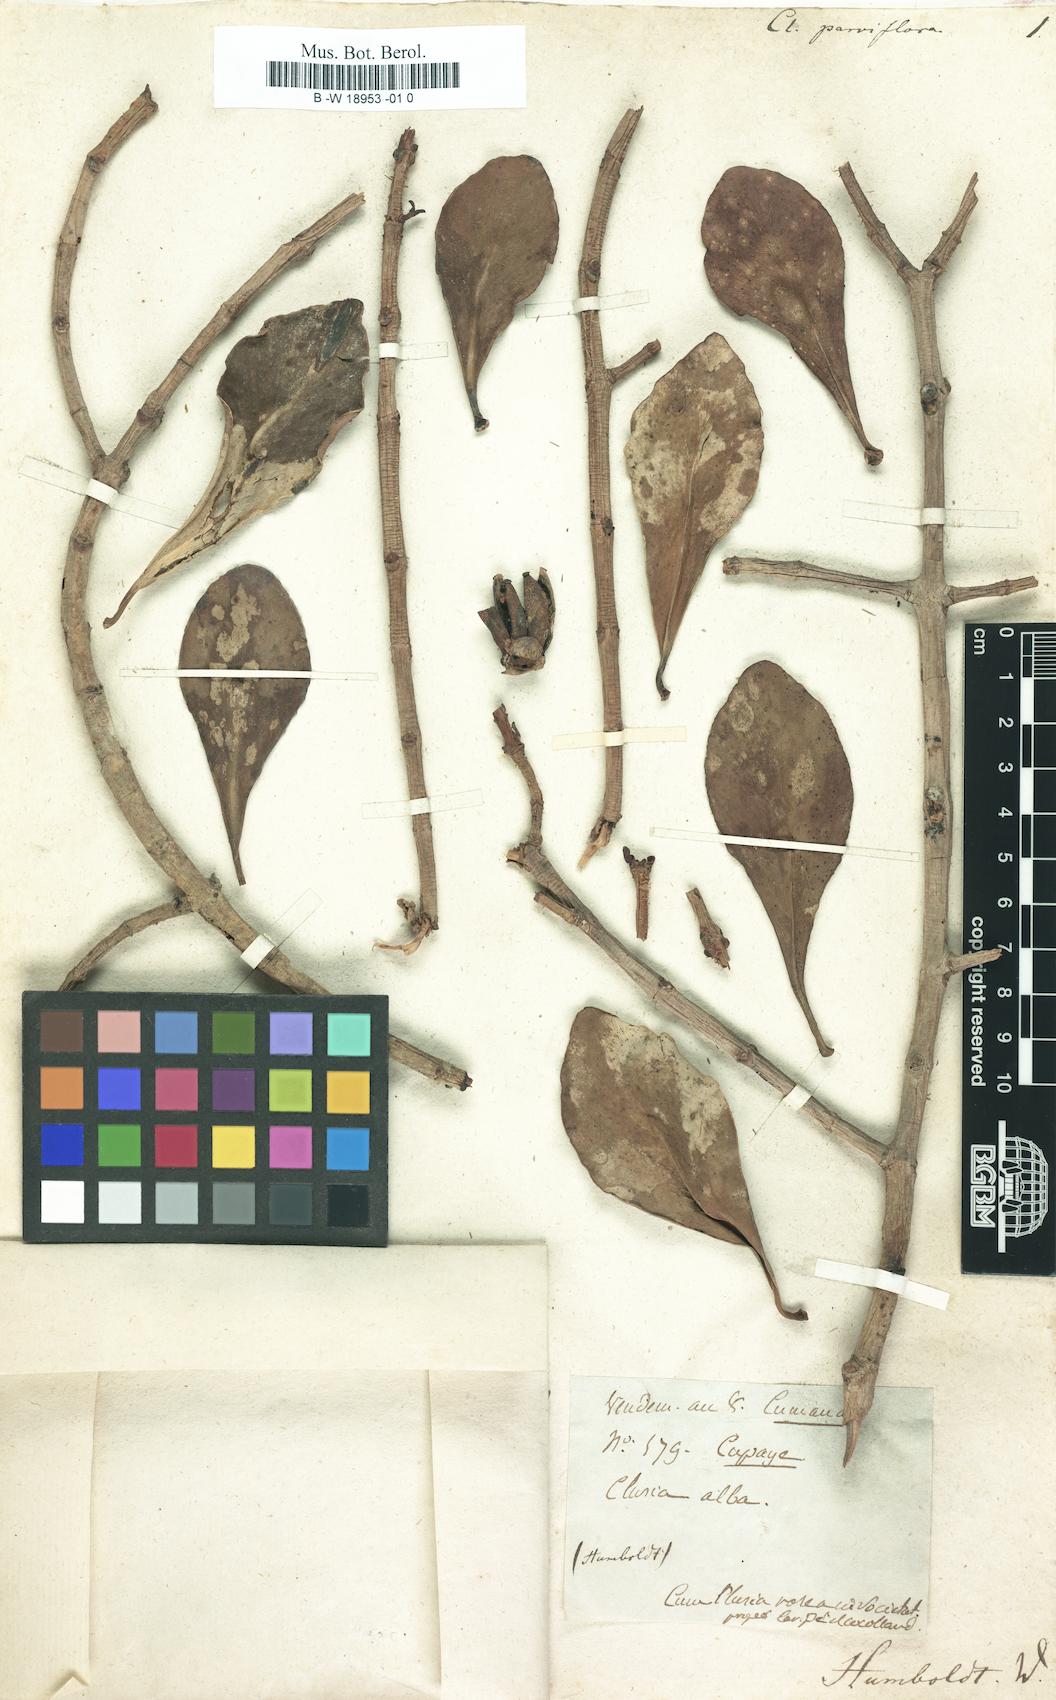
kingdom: Plantae
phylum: Tracheophyta
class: Magnoliopsida
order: Malpighiales
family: Clusiaceae
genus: Clusia
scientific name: Clusia parviflora
